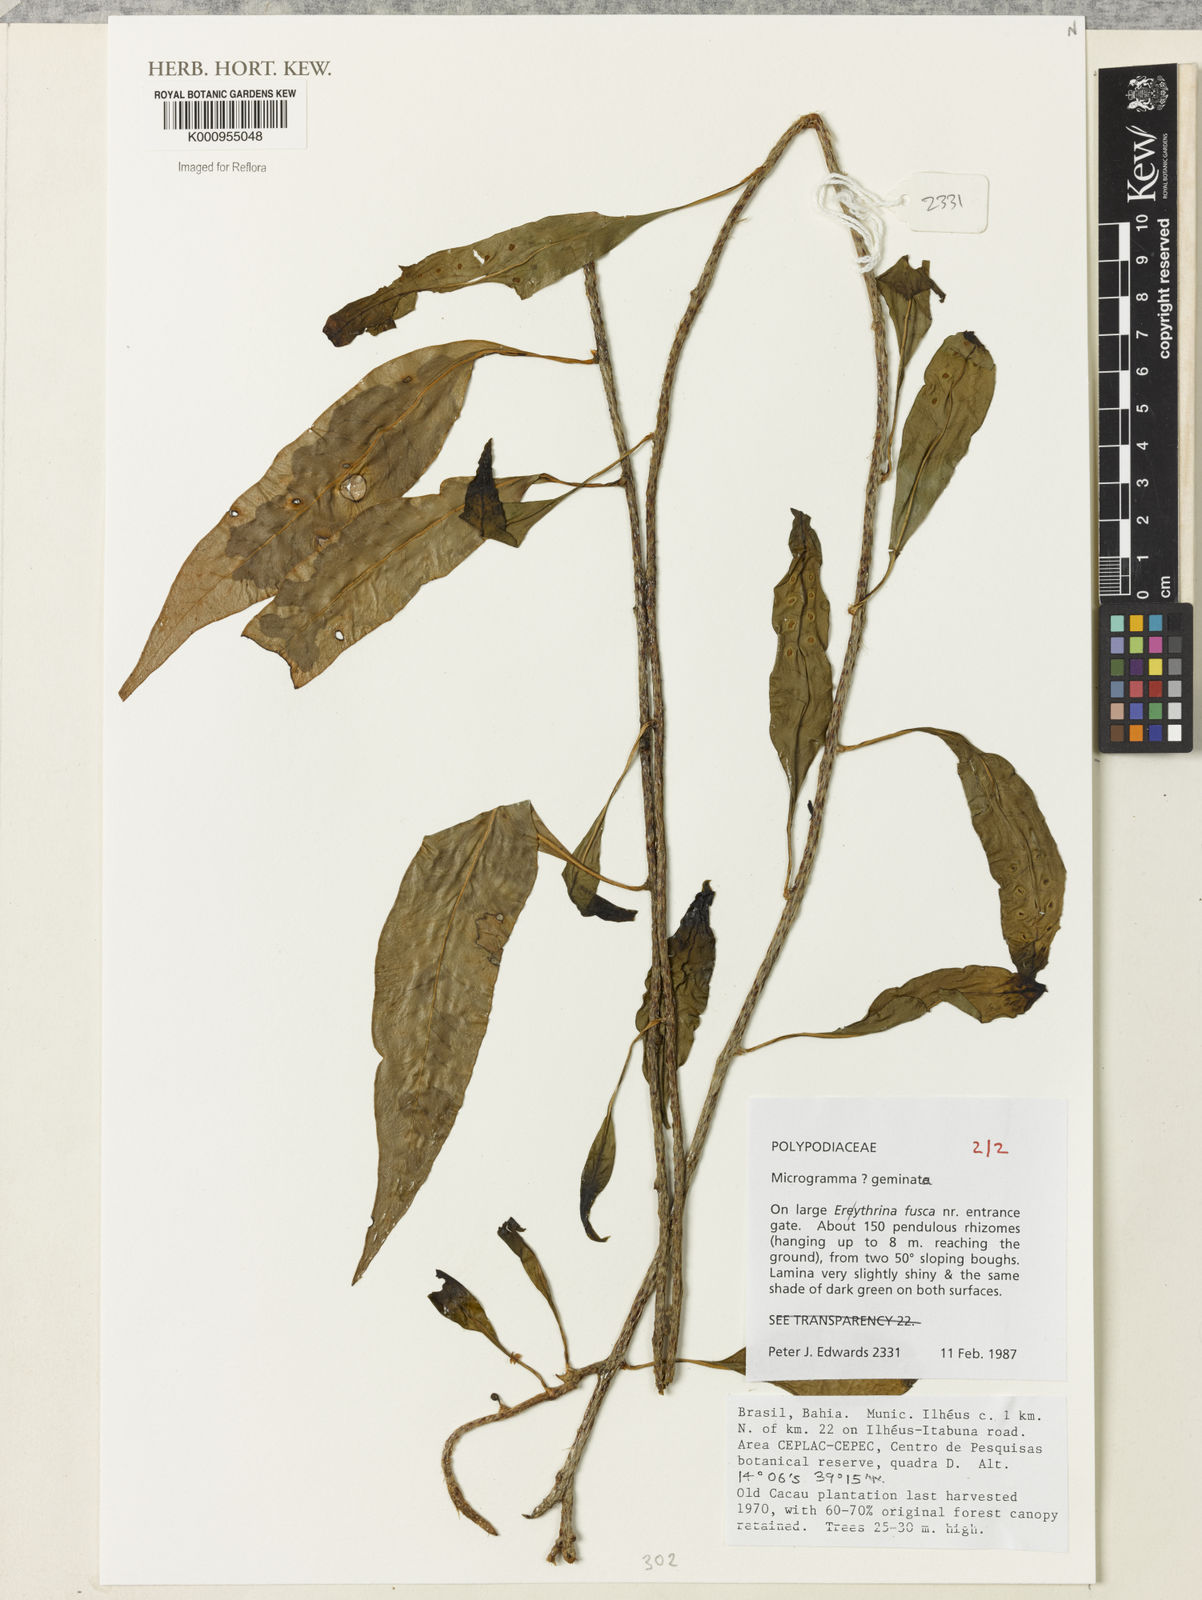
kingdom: Plantae
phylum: Tracheophyta
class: Polypodiopsida
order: Polypodiales
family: Polypodiaceae
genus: Microgramma
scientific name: Microgramma geminata
